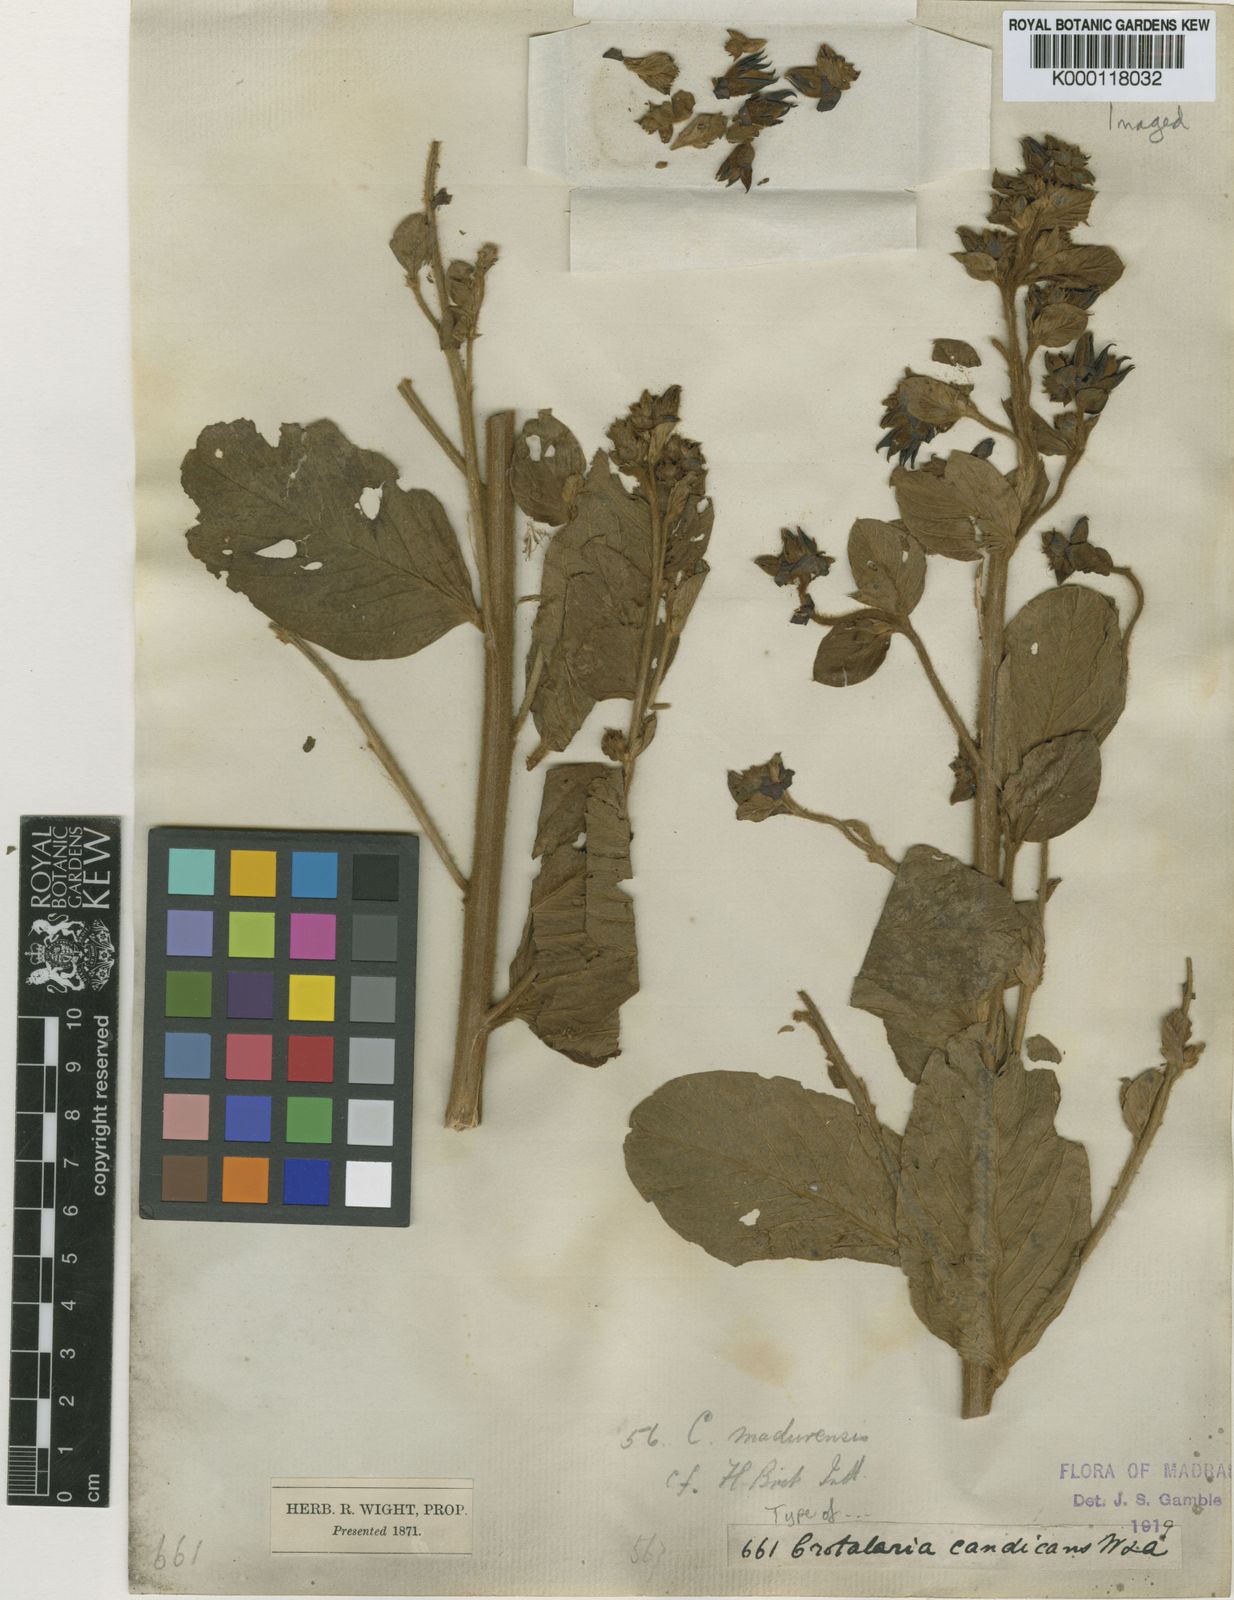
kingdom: Plantae
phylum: Tracheophyta
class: Magnoliopsida
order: Fabales
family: Fabaceae
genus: Crotalaria
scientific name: Crotalaria candicans
